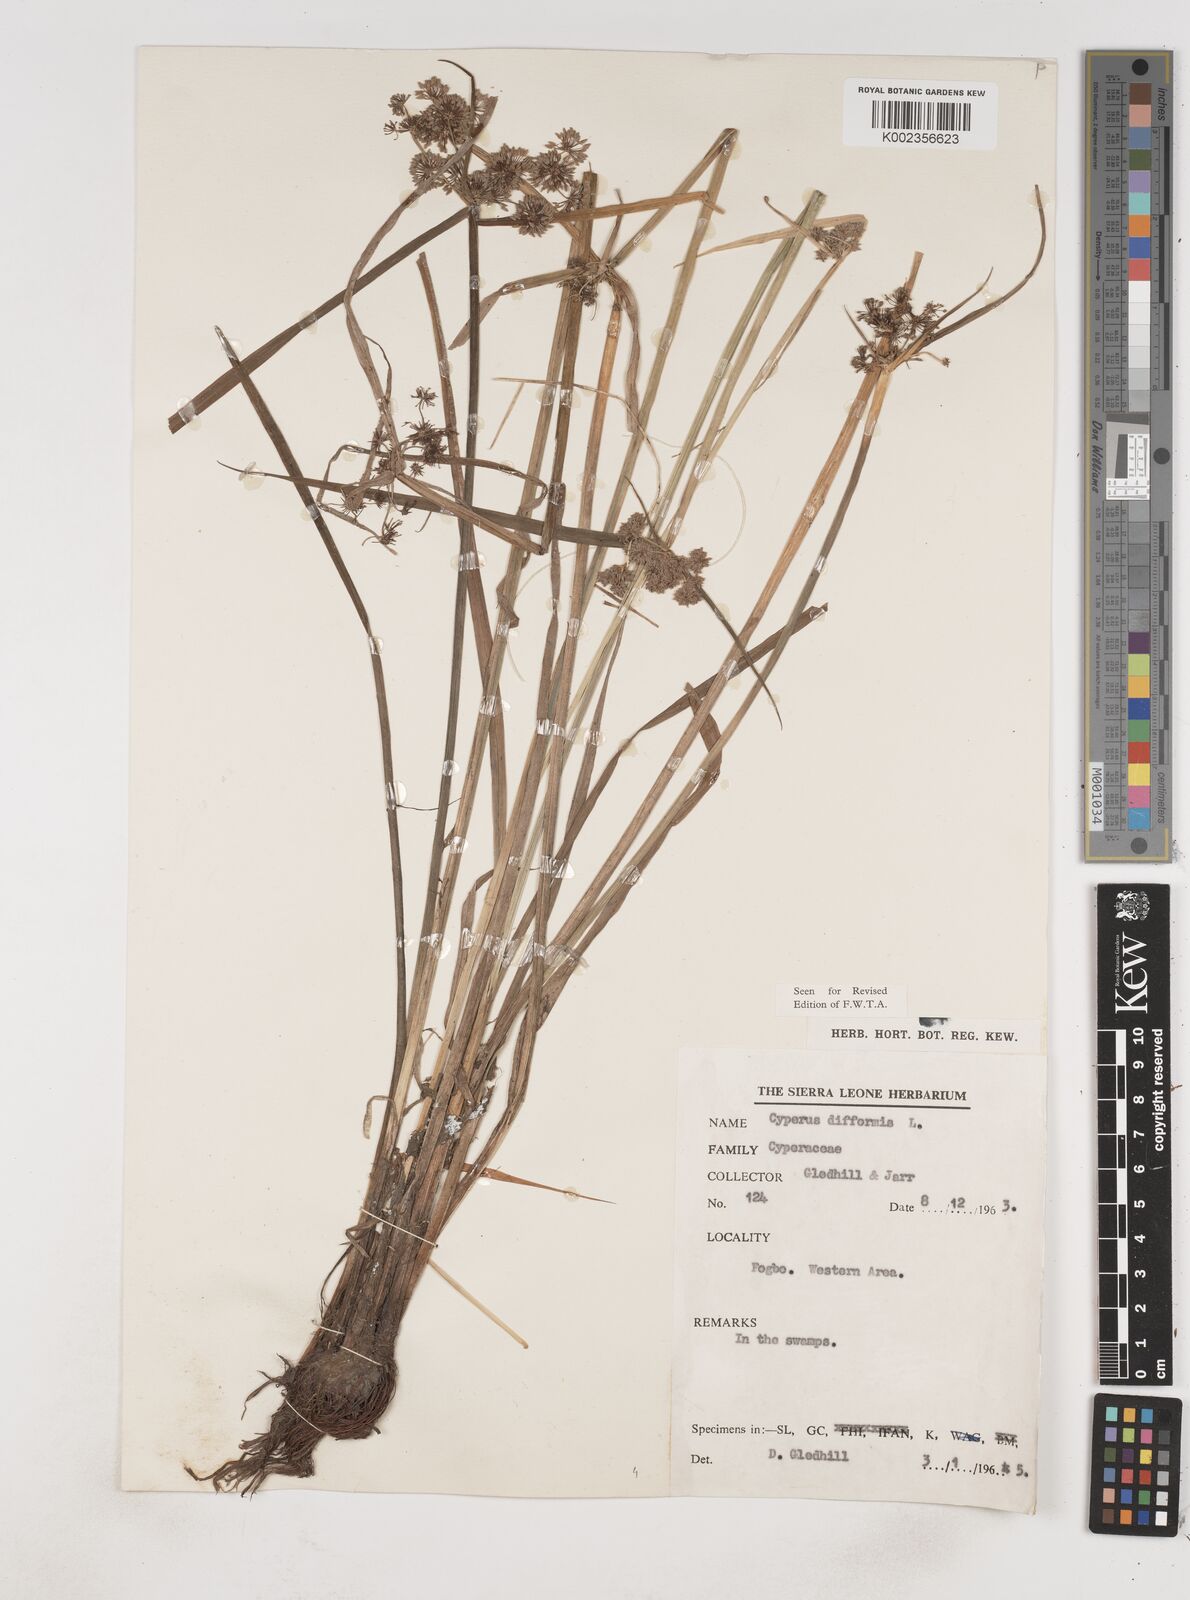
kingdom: Plantae
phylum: Tracheophyta
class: Liliopsida
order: Poales
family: Cyperaceae
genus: Cyperus
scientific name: Cyperus difformis
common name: Variable flatsedge
